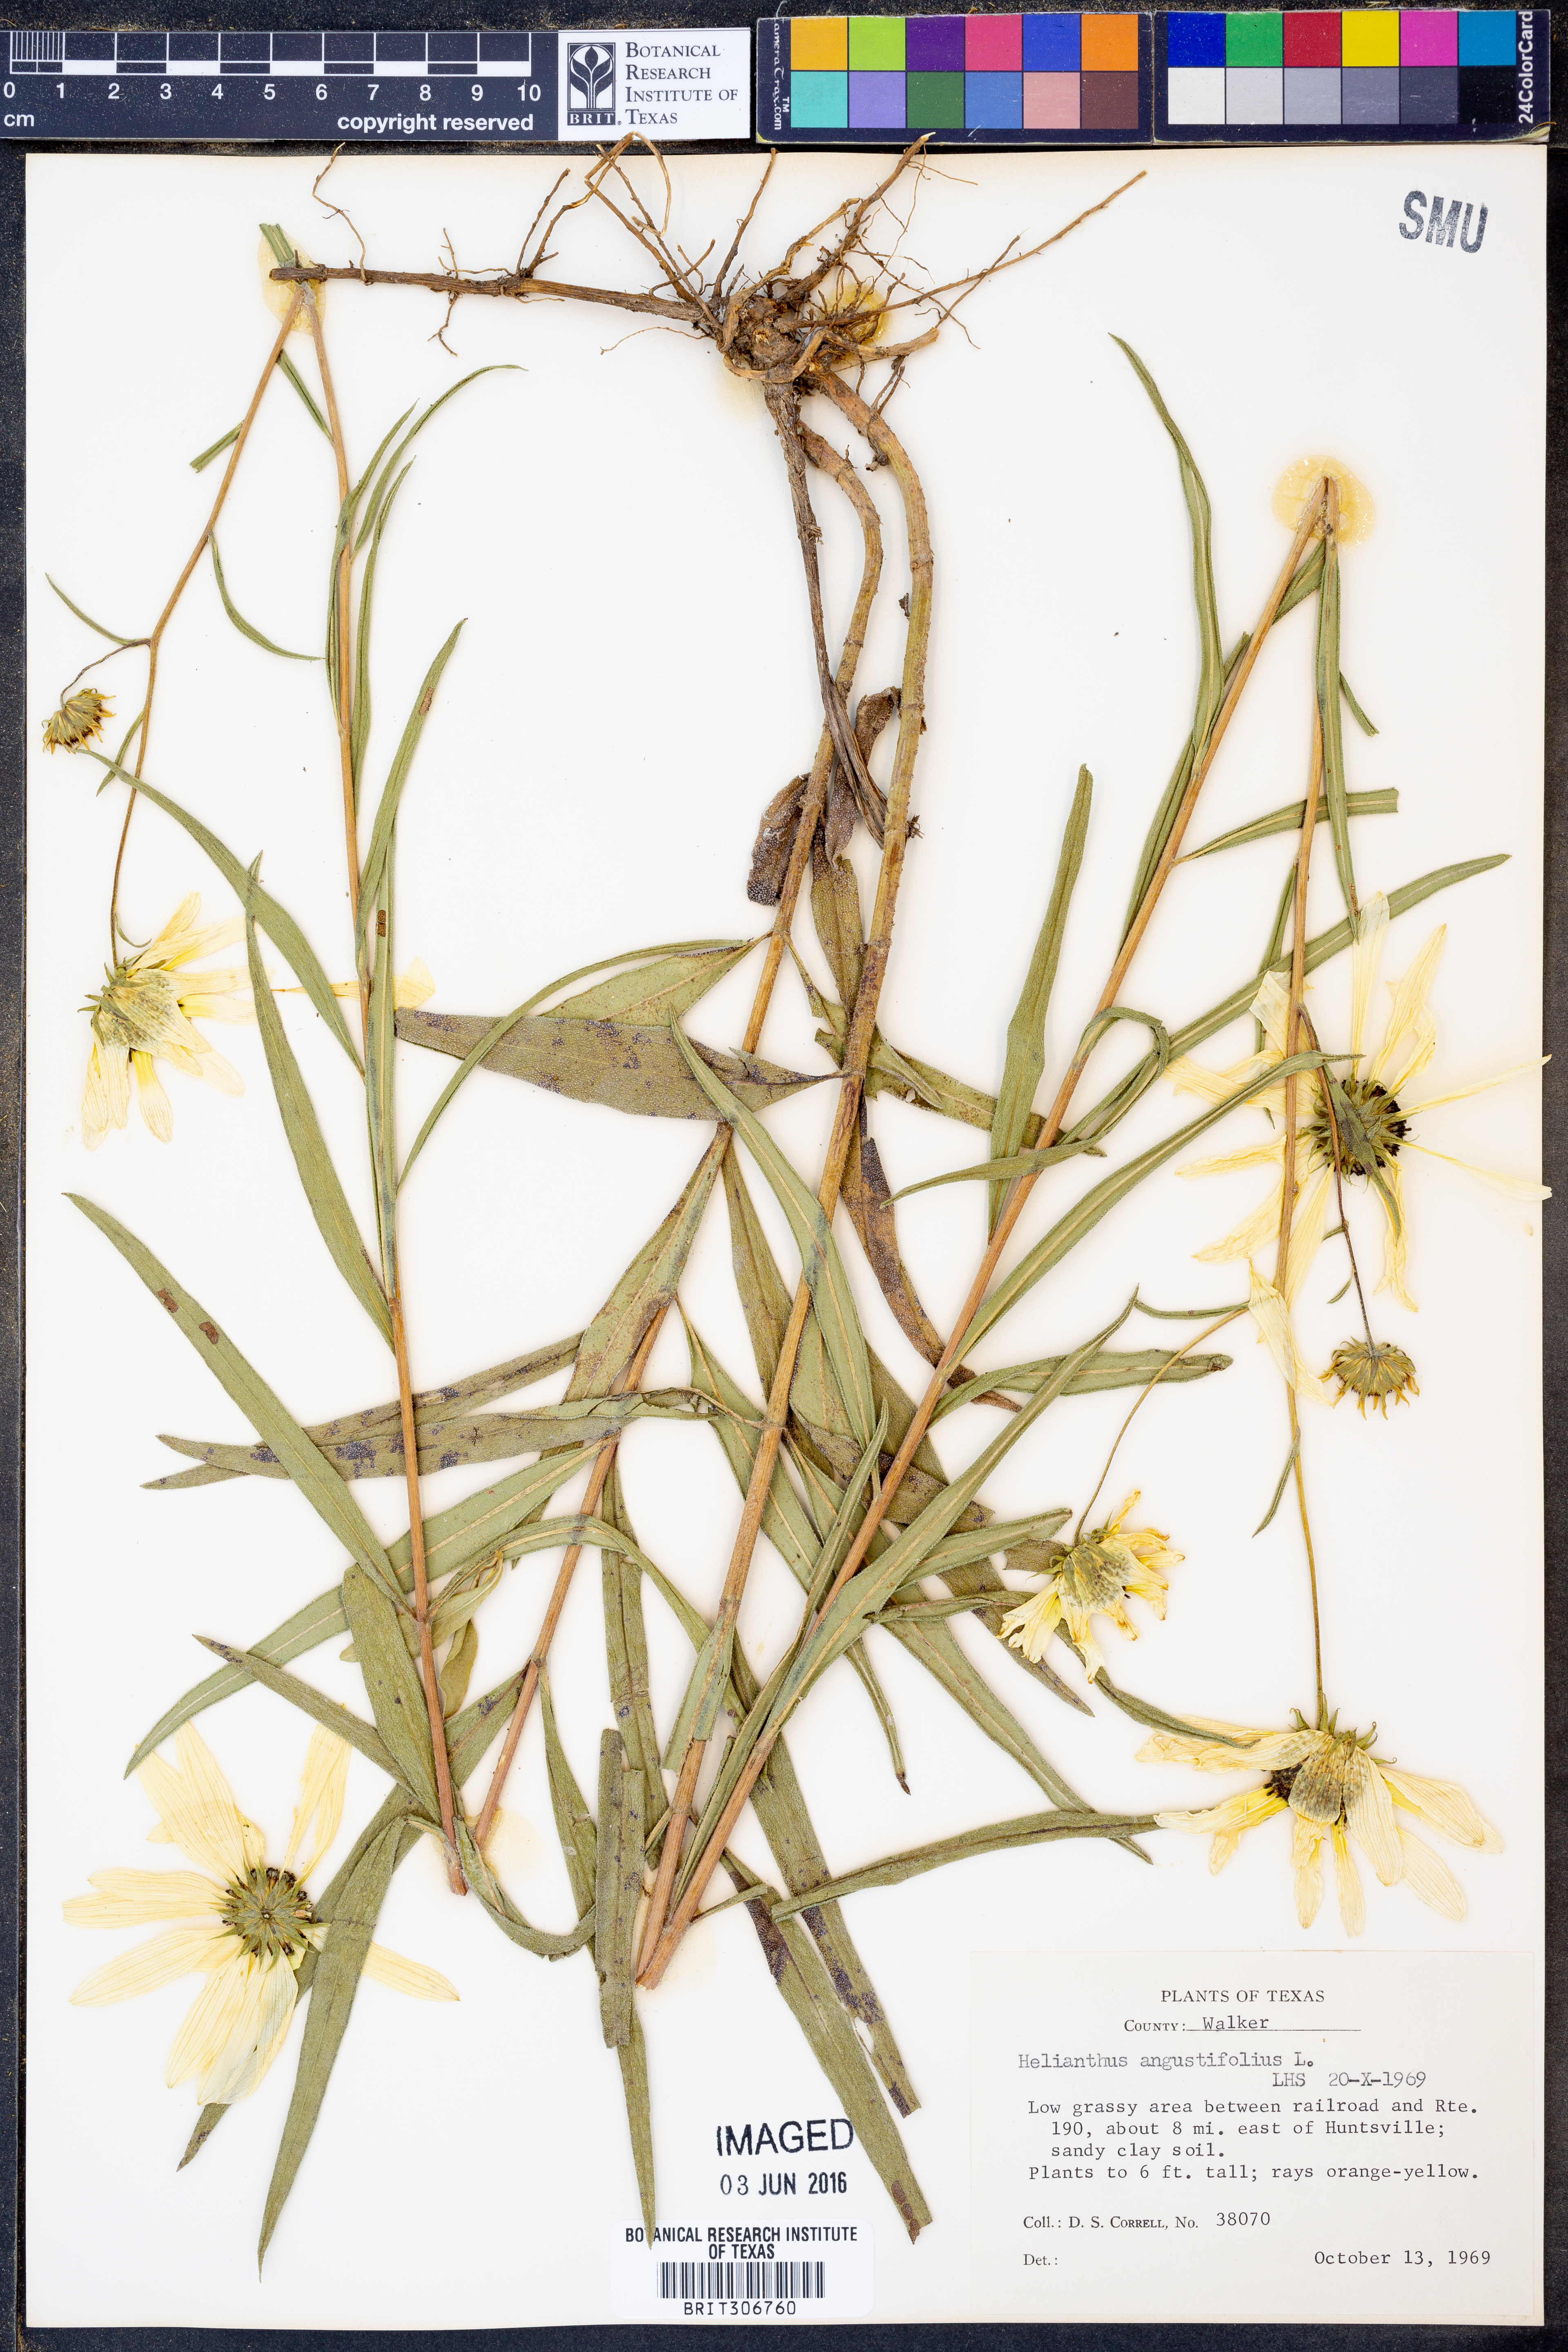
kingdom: Plantae
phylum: Tracheophyta
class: Magnoliopsida
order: Asterales
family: Asteraceae
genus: Helianthus
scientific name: Helianthus angustifolius
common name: Swamp sunflower
